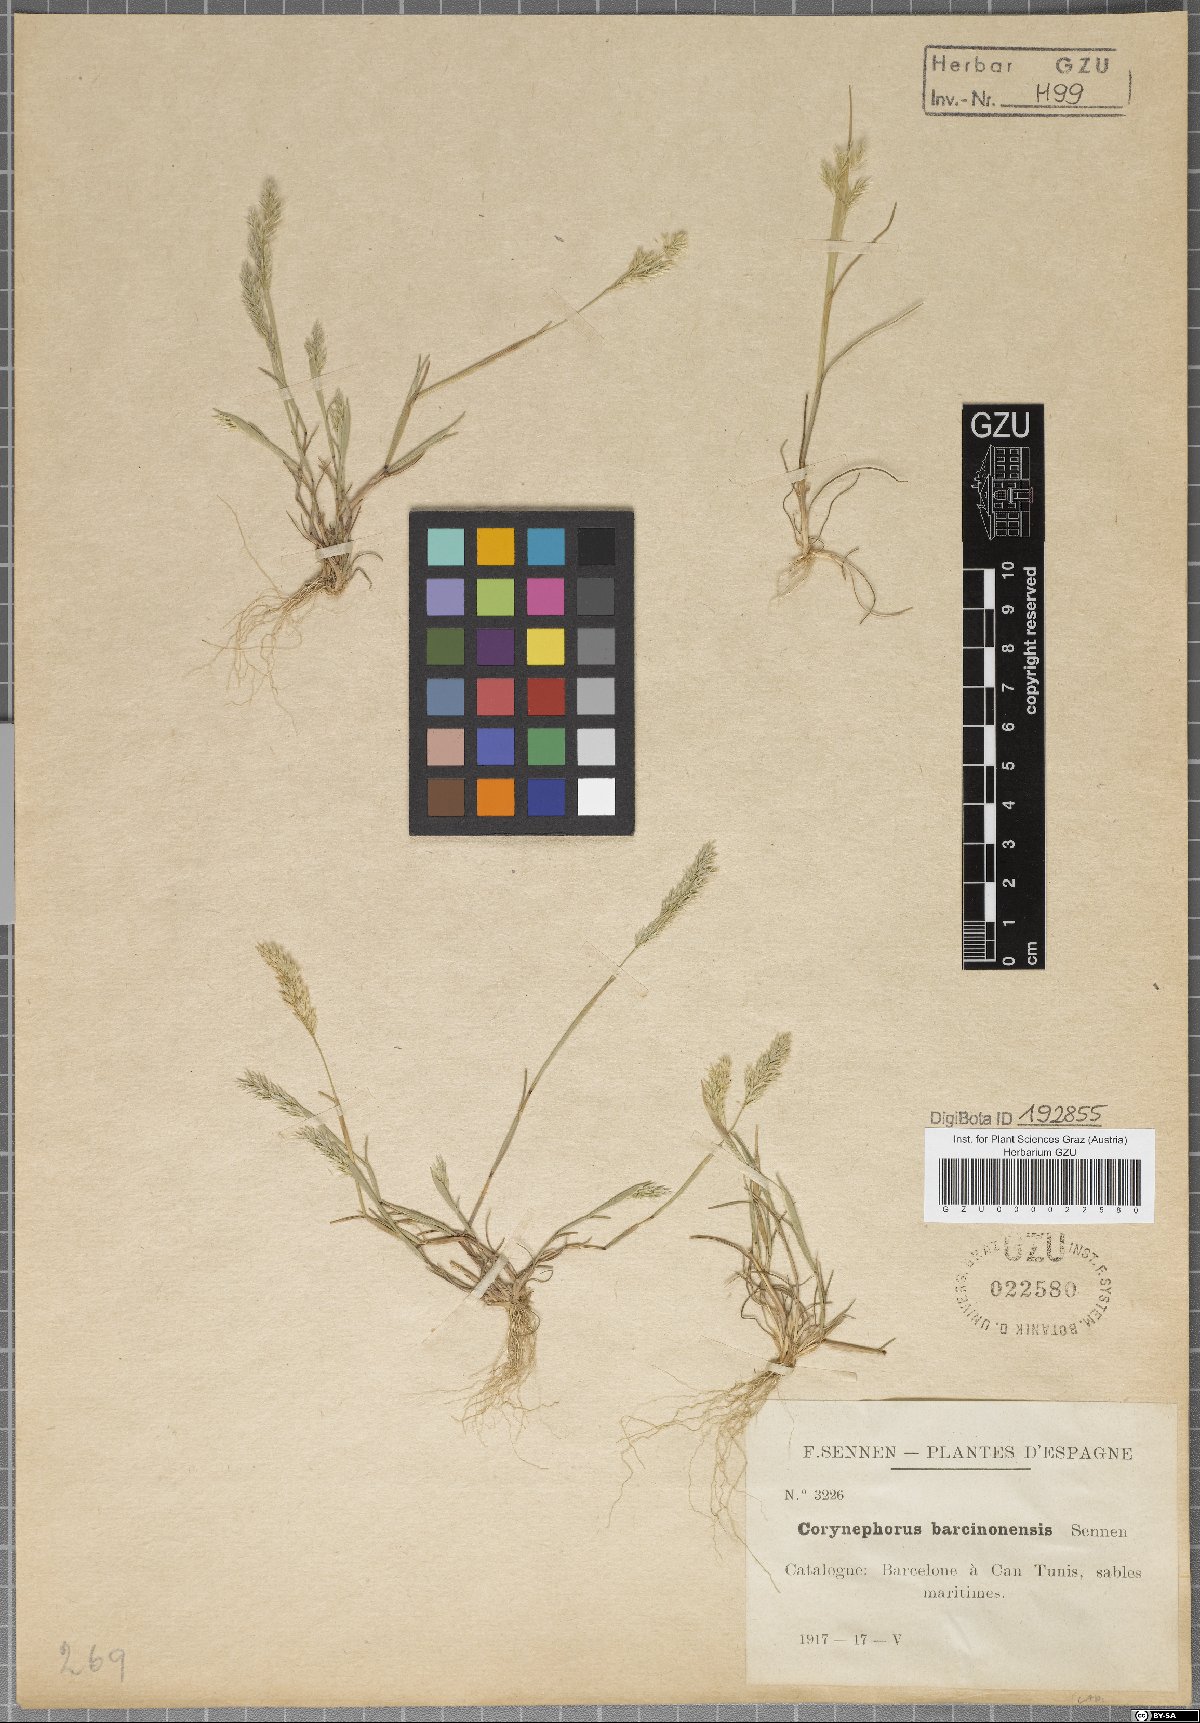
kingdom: Plantae
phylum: Tracheophyta
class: Liliopsida
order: Poales
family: Poaceae
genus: Corynephorus
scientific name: Corynephorus barcinonensis
